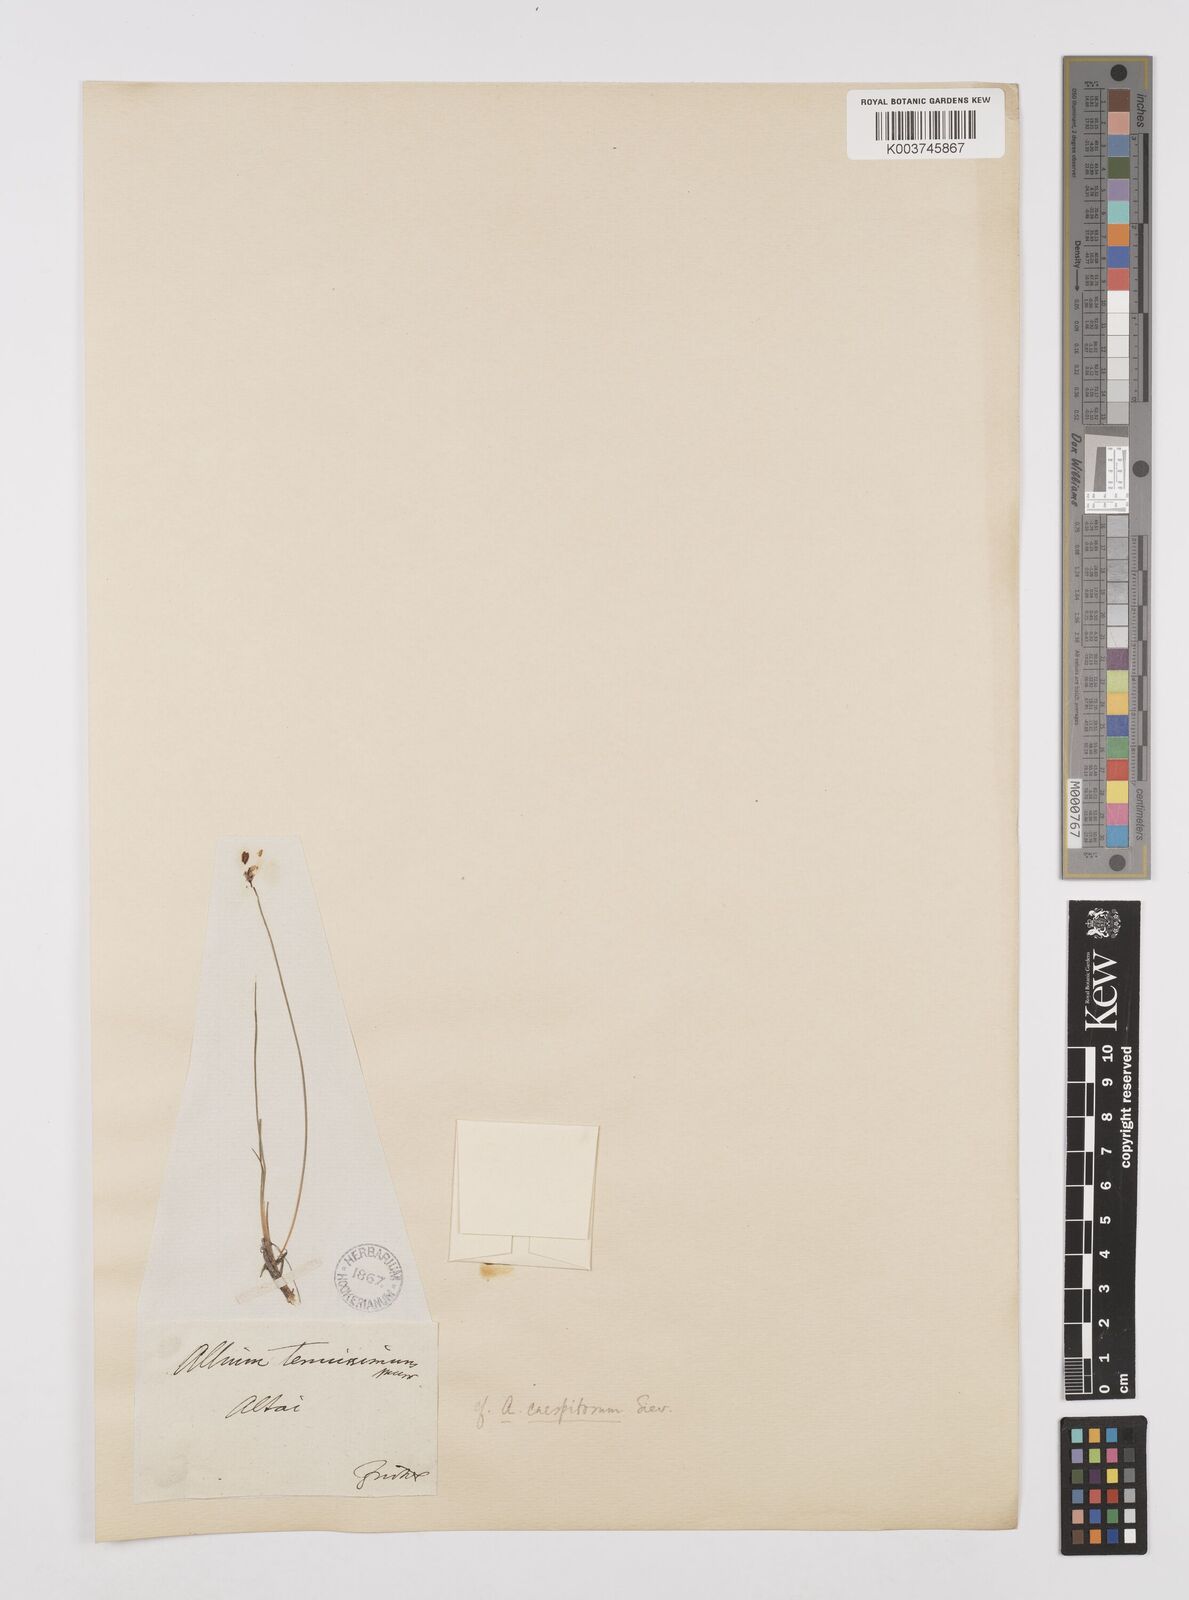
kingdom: Plantae
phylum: Tracheophyta
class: Liliopsida
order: Asparagales
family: Amaryllidaceae
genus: Allium
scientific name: Allium caespitosum
